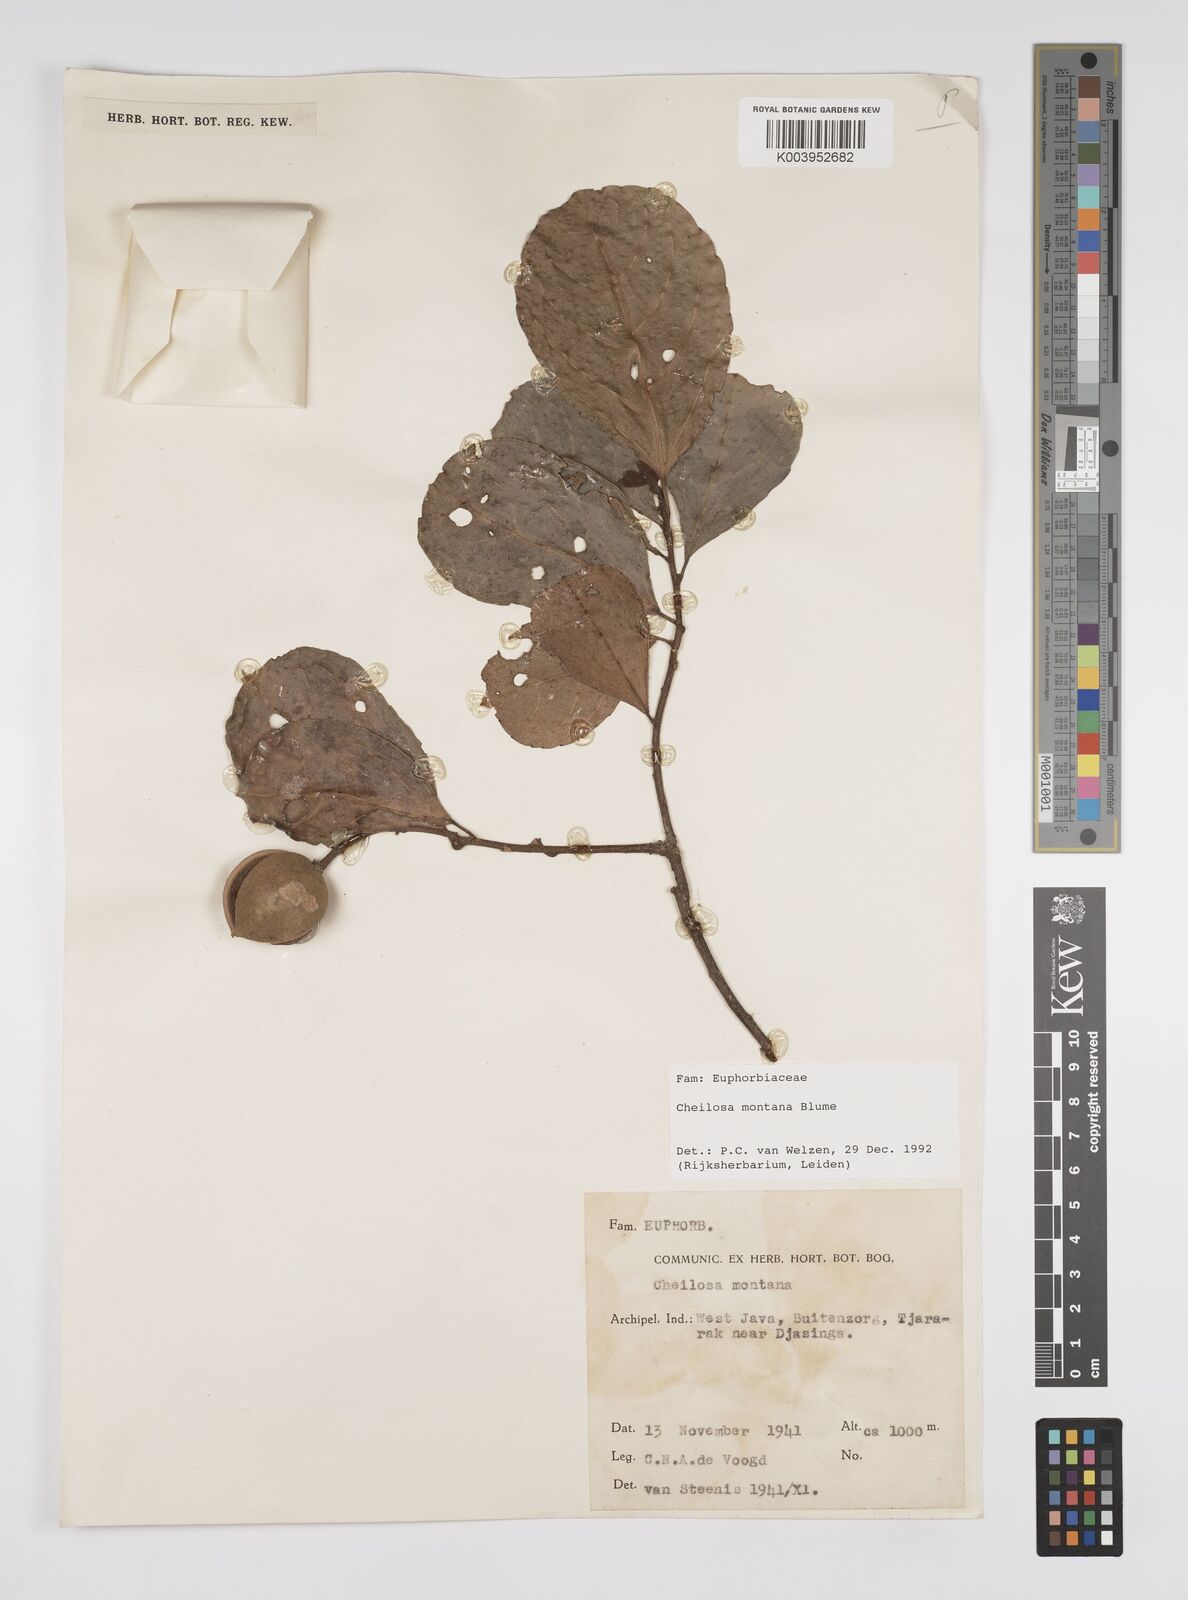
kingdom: Plantae
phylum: Tracheophyta
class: Magnoliopsida
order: Malpighiales
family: Euphorbiaceae
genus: Cheilosa
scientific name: Cheilosa montana
